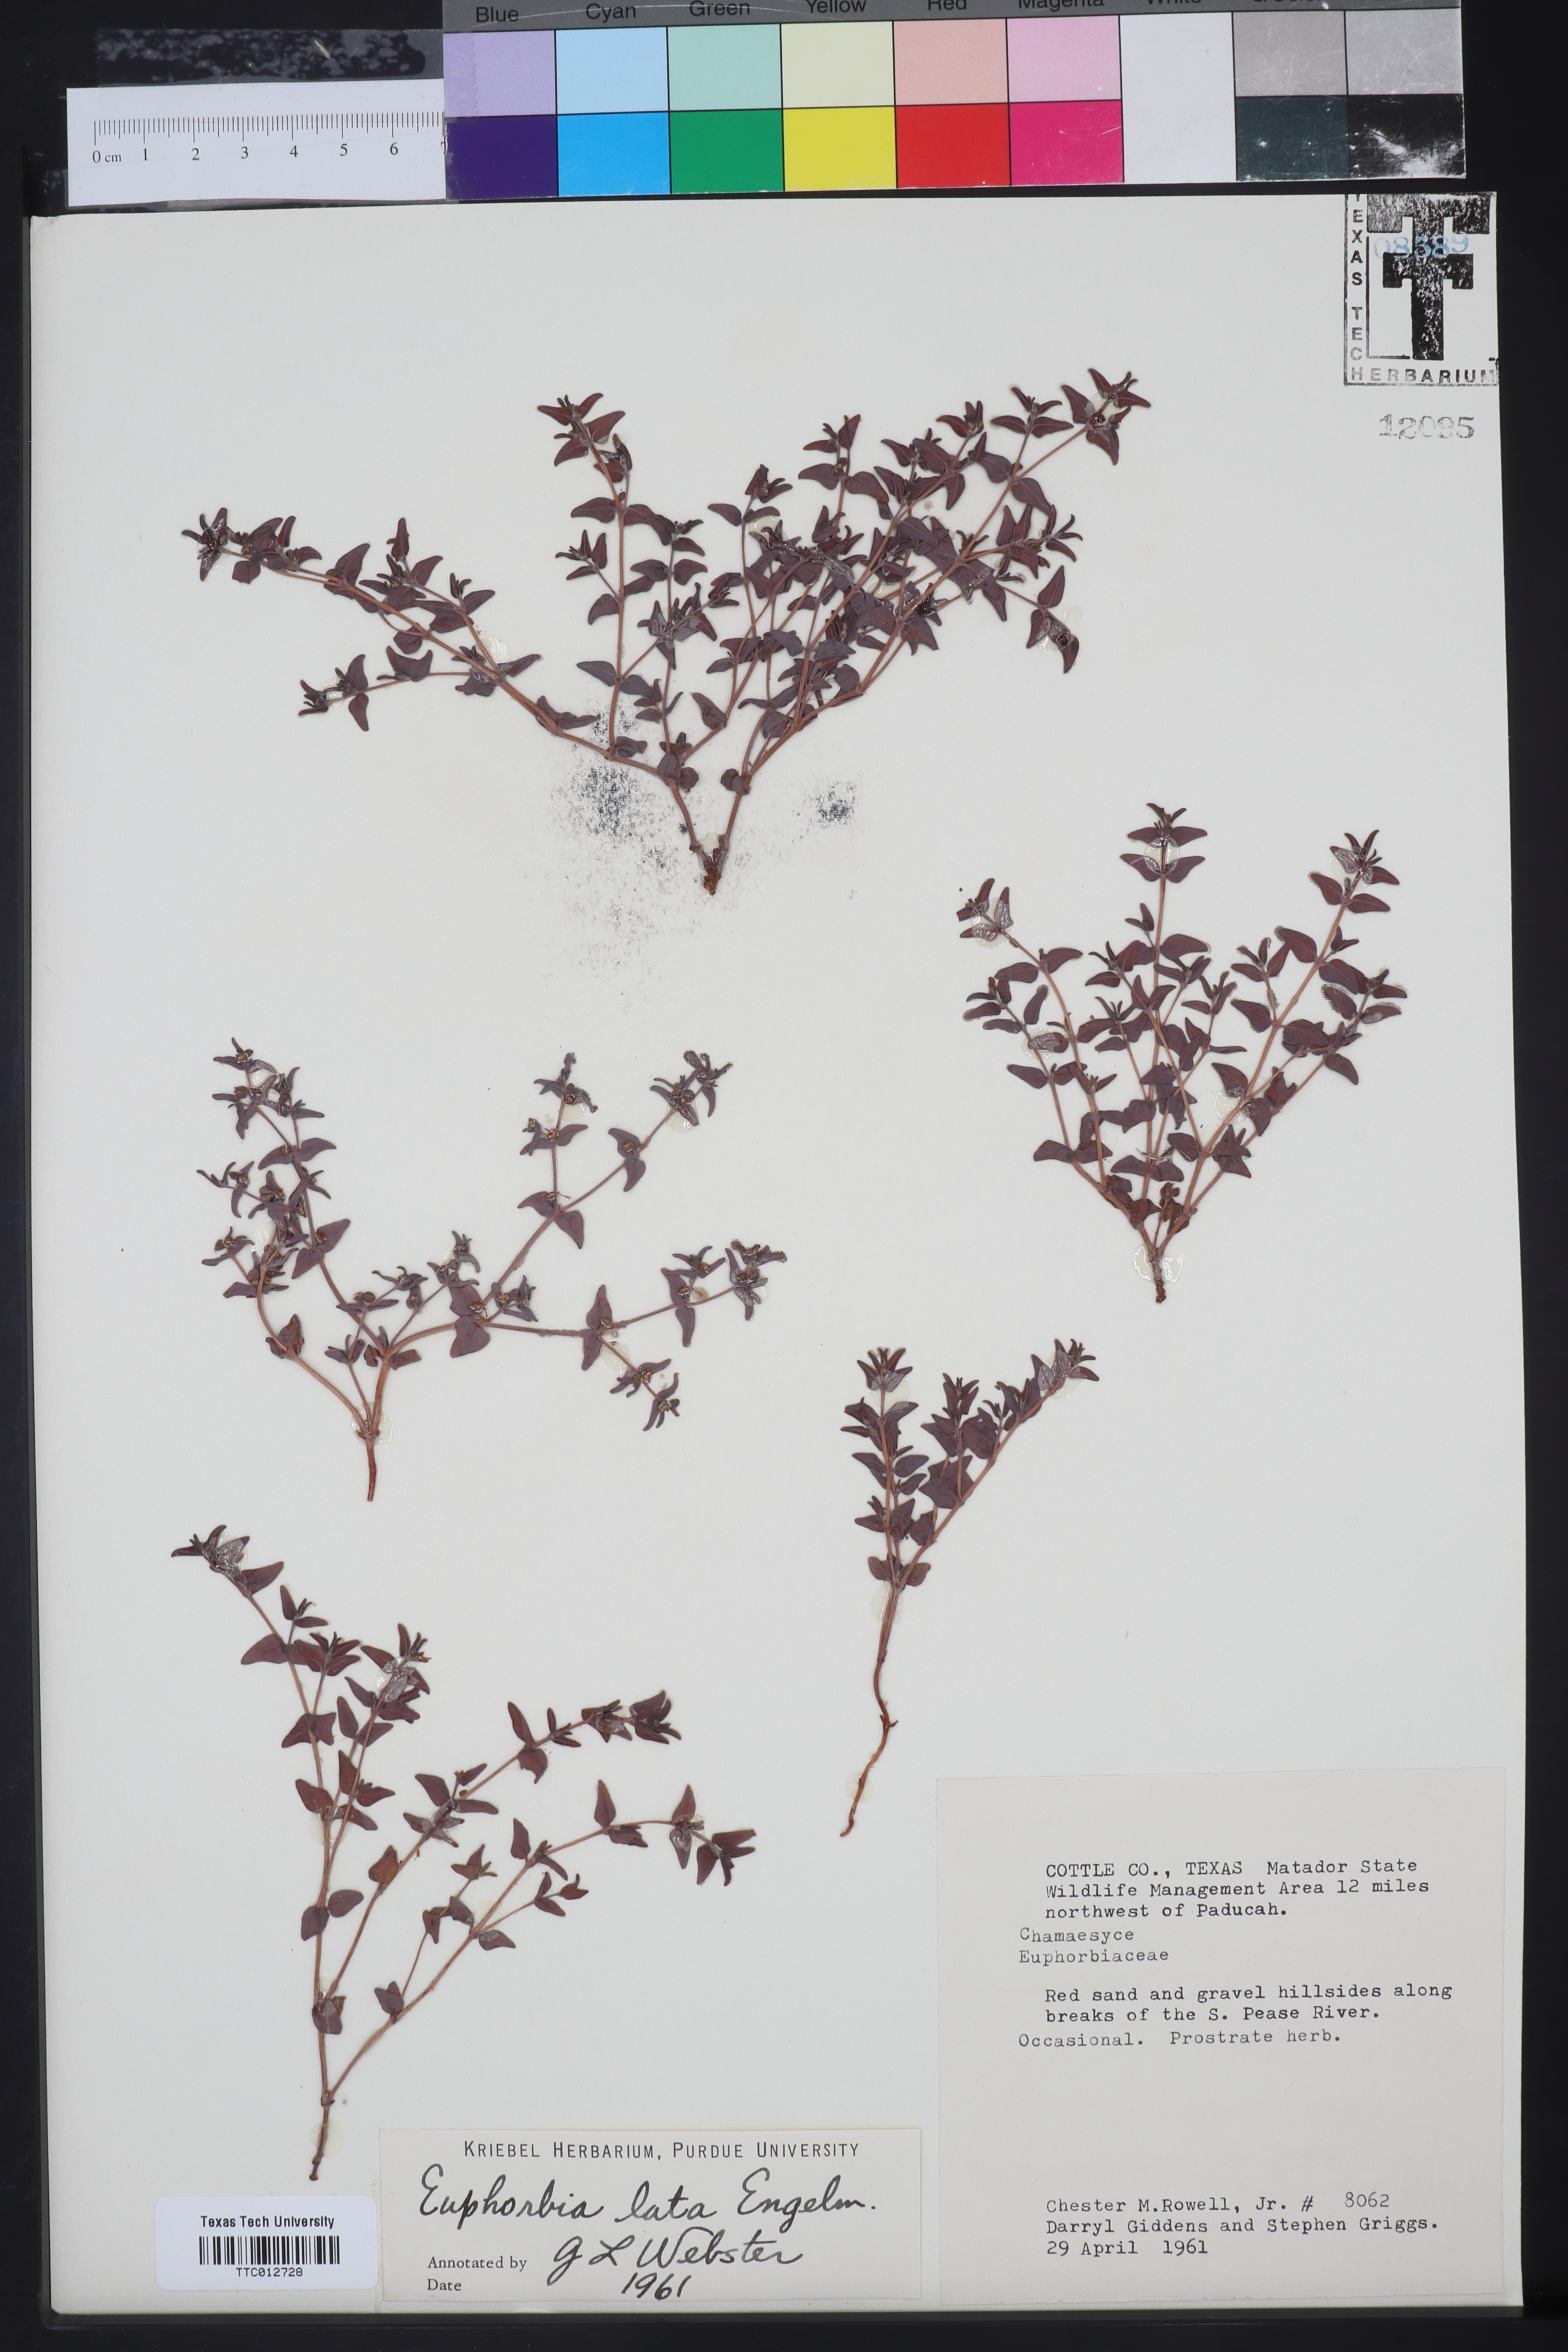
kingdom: Plantae
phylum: Tracheophyta
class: Magnoliopsida
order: Malpighiales
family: Euphorbiaceae
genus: Euphorbia
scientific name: Euphorbia lata
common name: Hoary euphorbia
